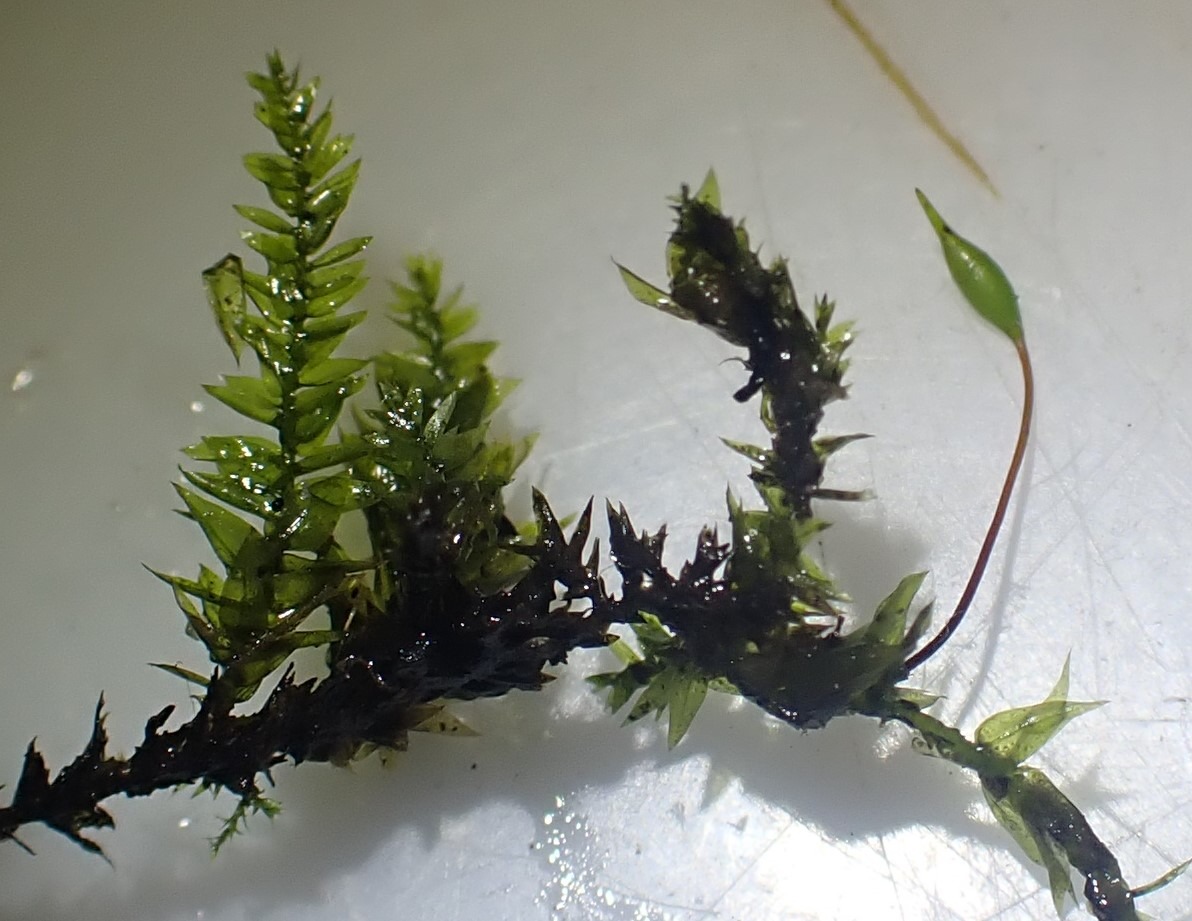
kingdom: Plantae
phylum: Bryophyta
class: Bryopsida
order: Hypnales
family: Brachytheciaceae
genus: Rhynchostegium
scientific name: Rhynchostegium riparioides
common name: Robust strømmos
